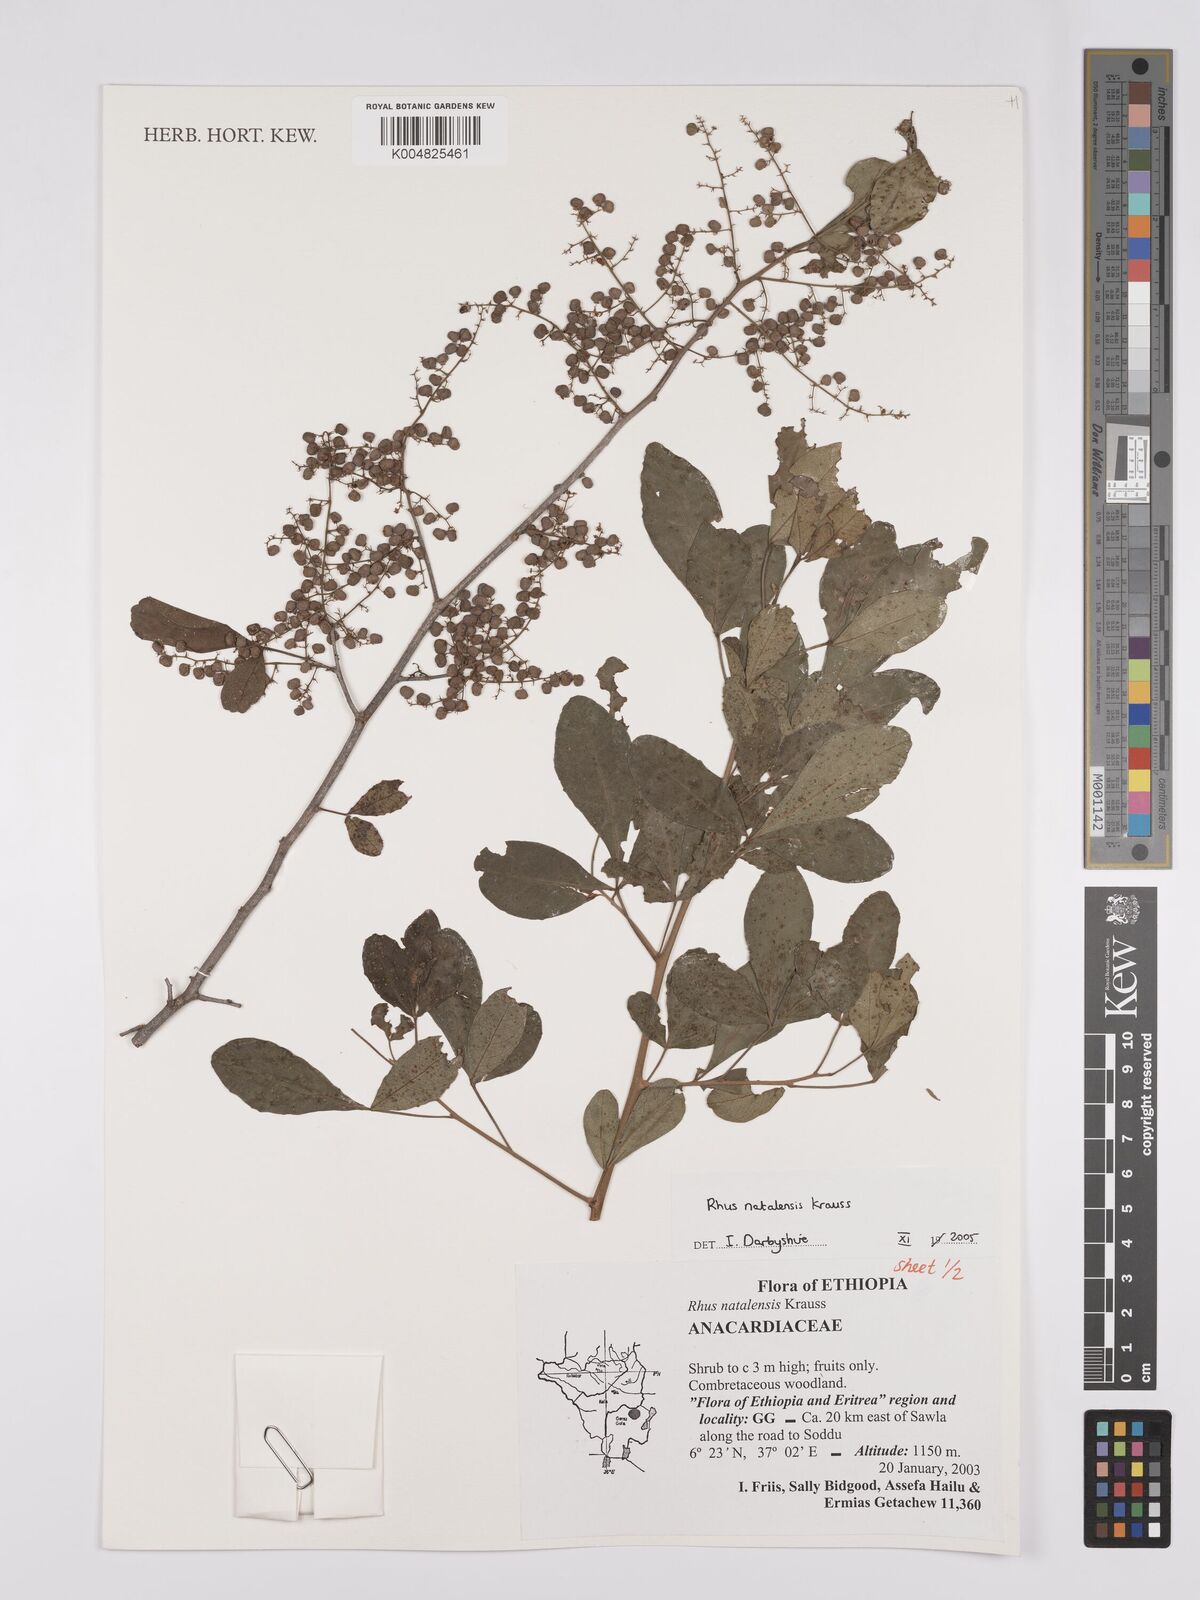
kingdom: Plantae
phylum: Tracheophyta
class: Magnoliopsida
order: Sapindales
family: Anacardiaceae
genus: Searsia
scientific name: Searsia natalensis
